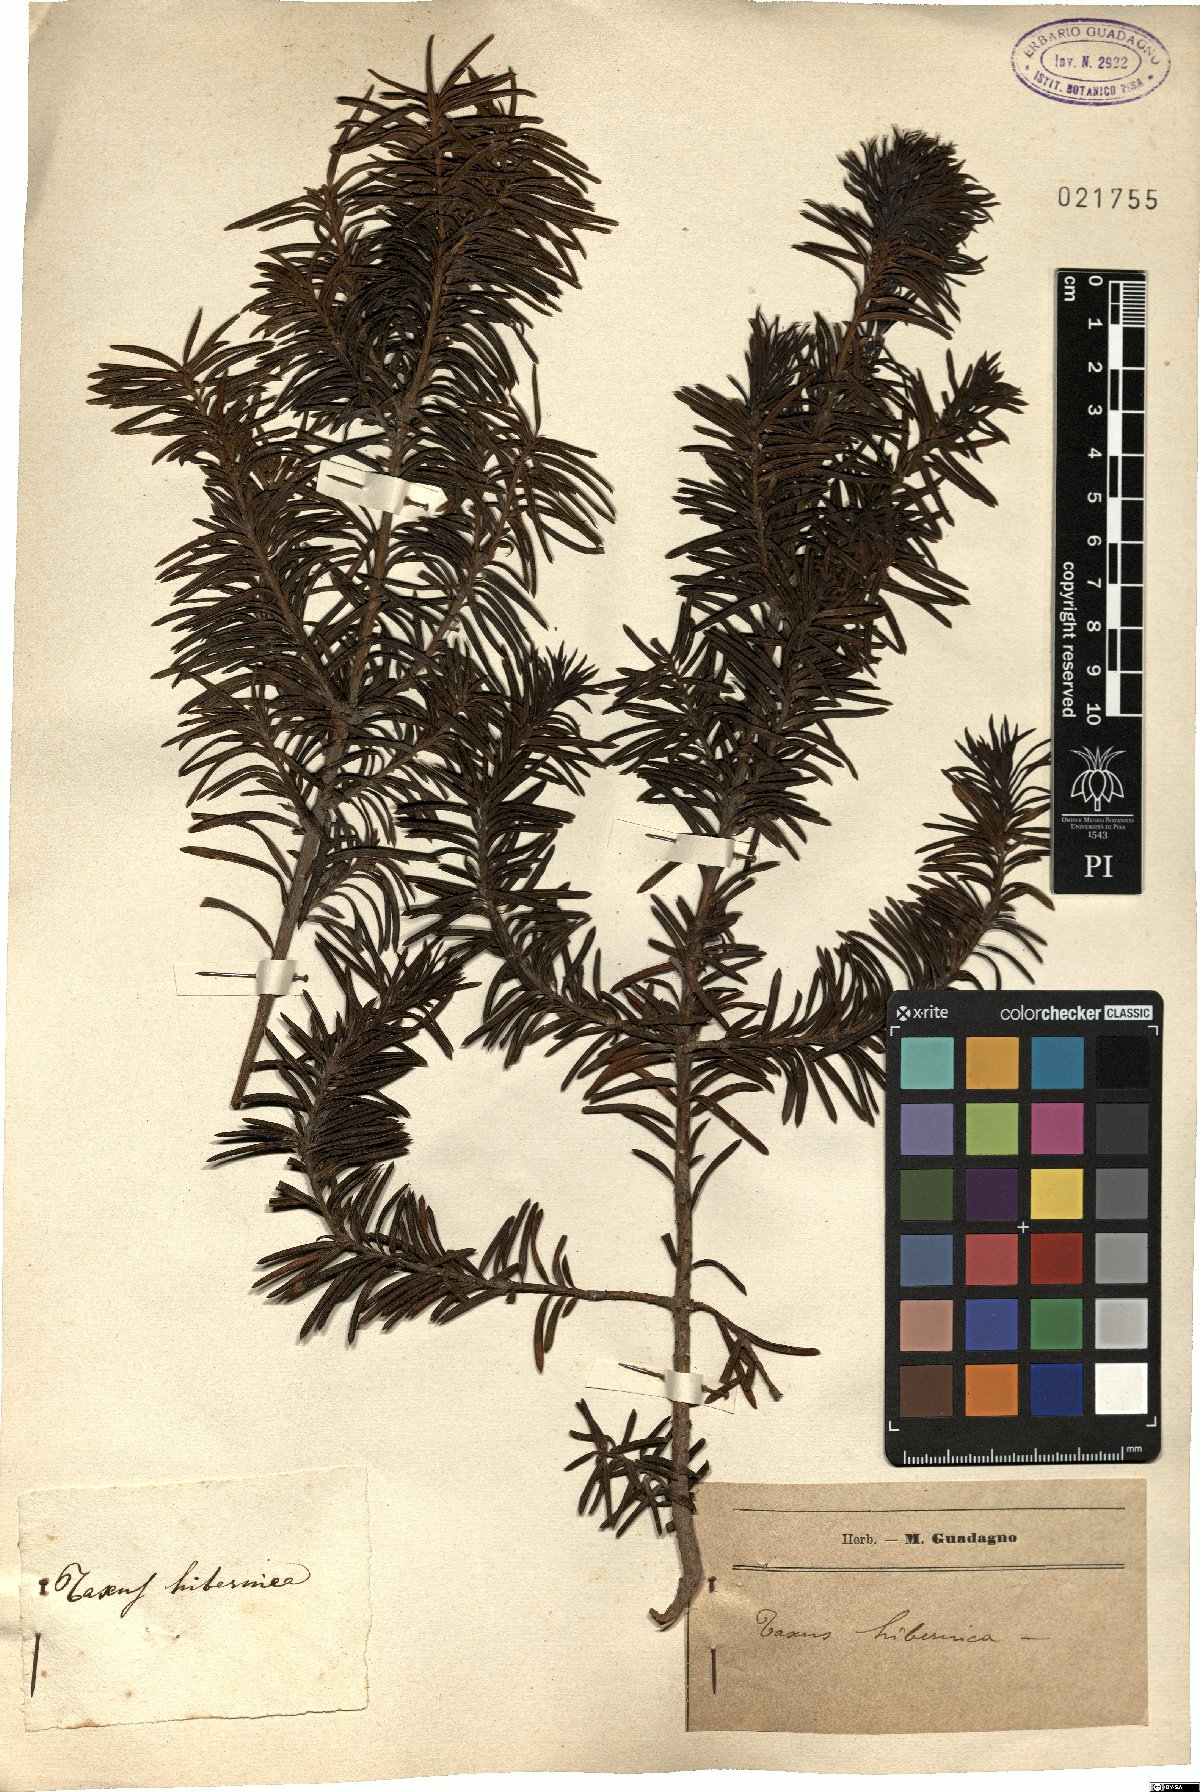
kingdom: Plantae
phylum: Tracheophyta
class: Pinopsida
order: Pinales
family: Taxaceae
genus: Taxus
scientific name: Taxus
